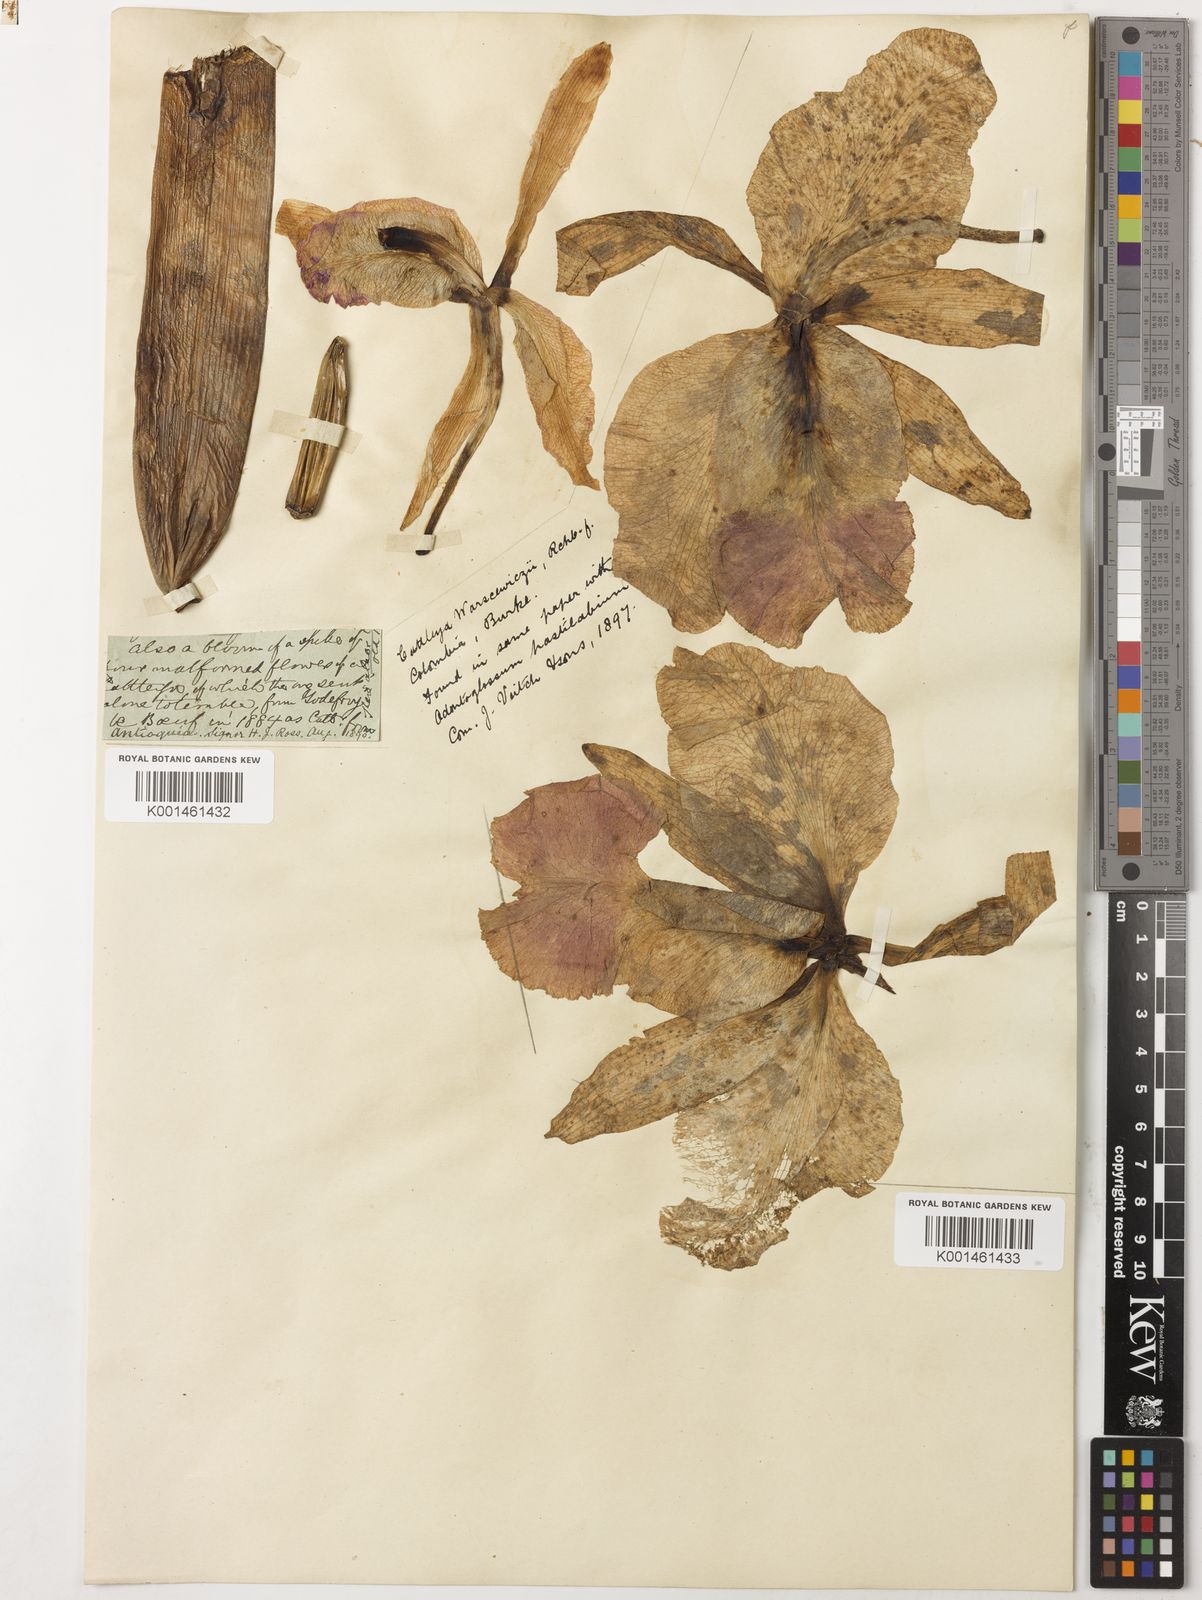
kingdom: Plantae
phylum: Tracheophyta
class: Liliopsida
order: Asparagales
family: Orchidaceae
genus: Cattleya
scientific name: Cattleya warscewiczii
